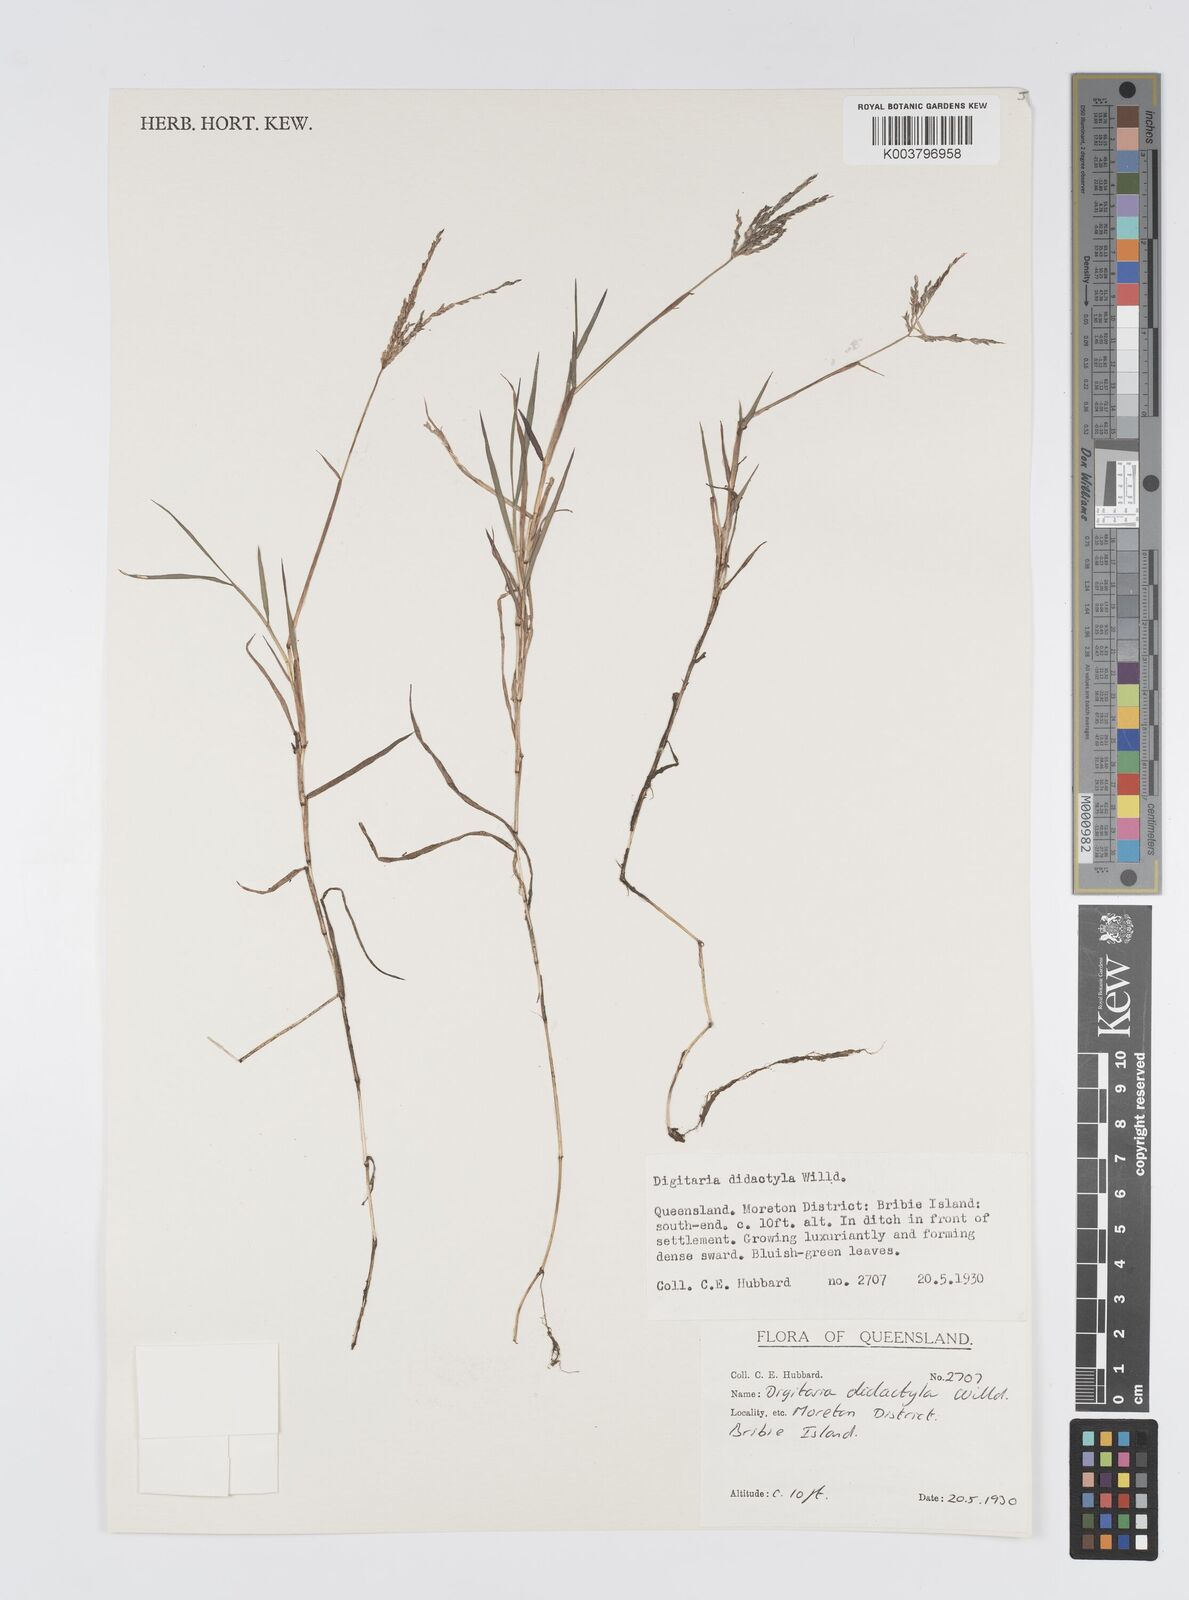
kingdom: Plantae
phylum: Tracheophyta
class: Liliopsida
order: Poales
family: Poaceae
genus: Digitaria
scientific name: Digitaria didactyla
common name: Blue couch
